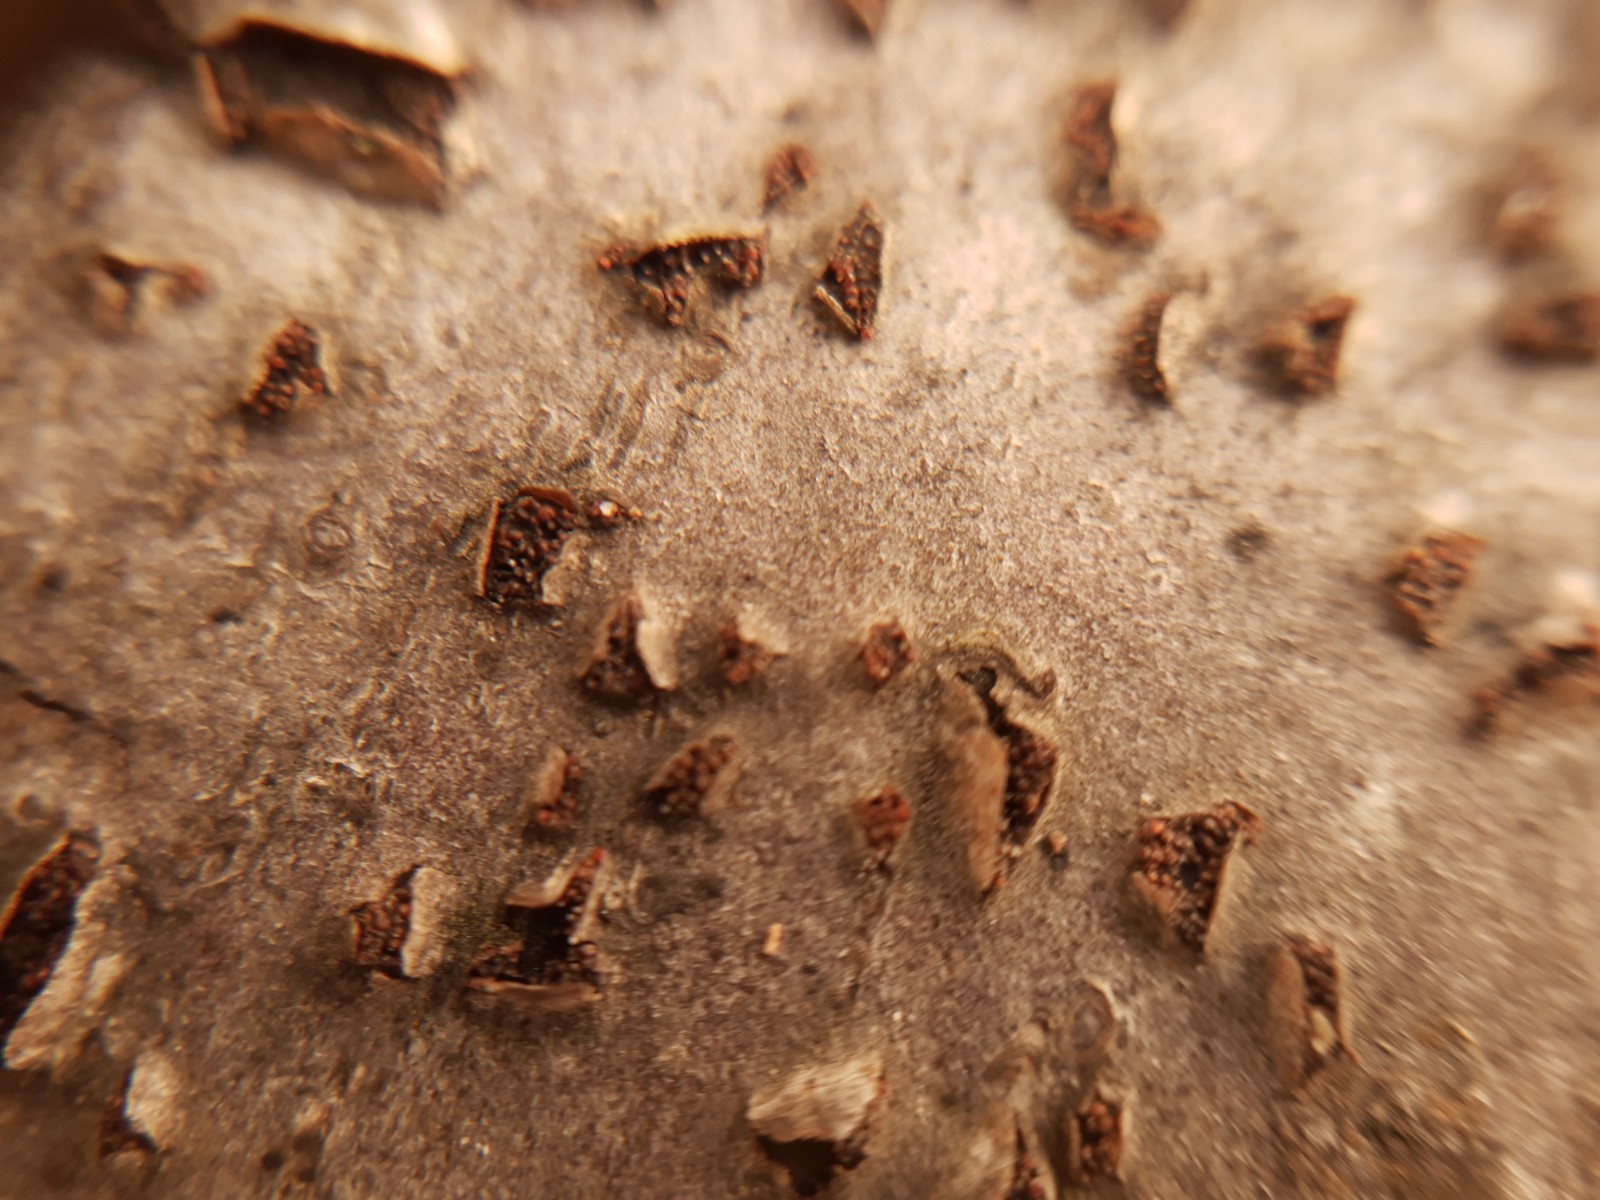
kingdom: Fungi
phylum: Ascomycota
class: Sordariomycetes
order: Hypocreales
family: Nectriaceae
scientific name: Nectriaceae
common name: cinnobersvampfamilien
